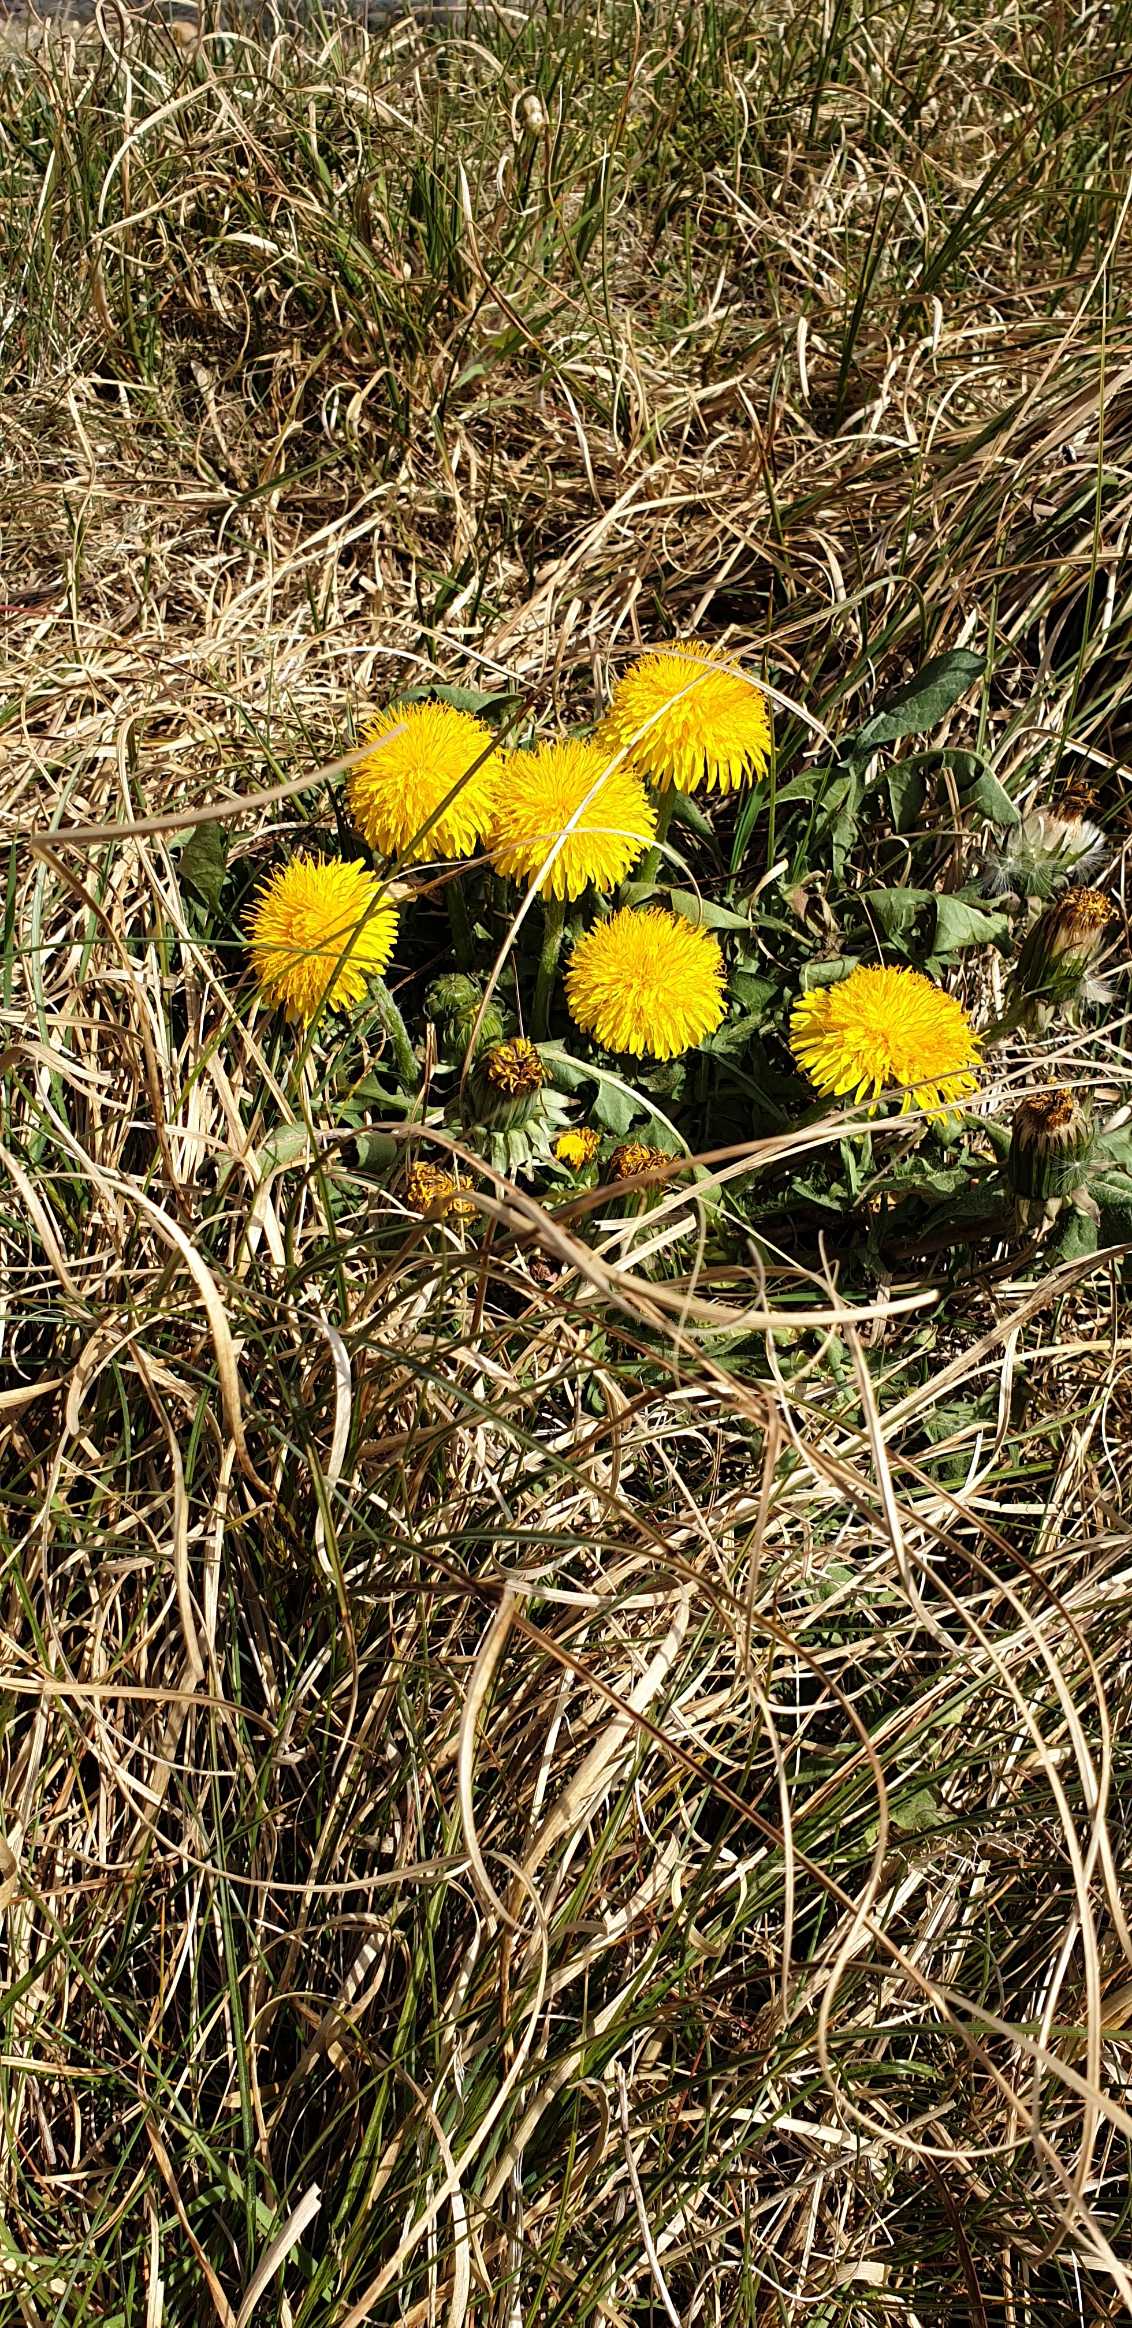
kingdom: Plantae
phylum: Tracheophyta
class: Magnoliopsida
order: Asterales
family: Asteraceae
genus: Taraxacum
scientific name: Taraxacum
